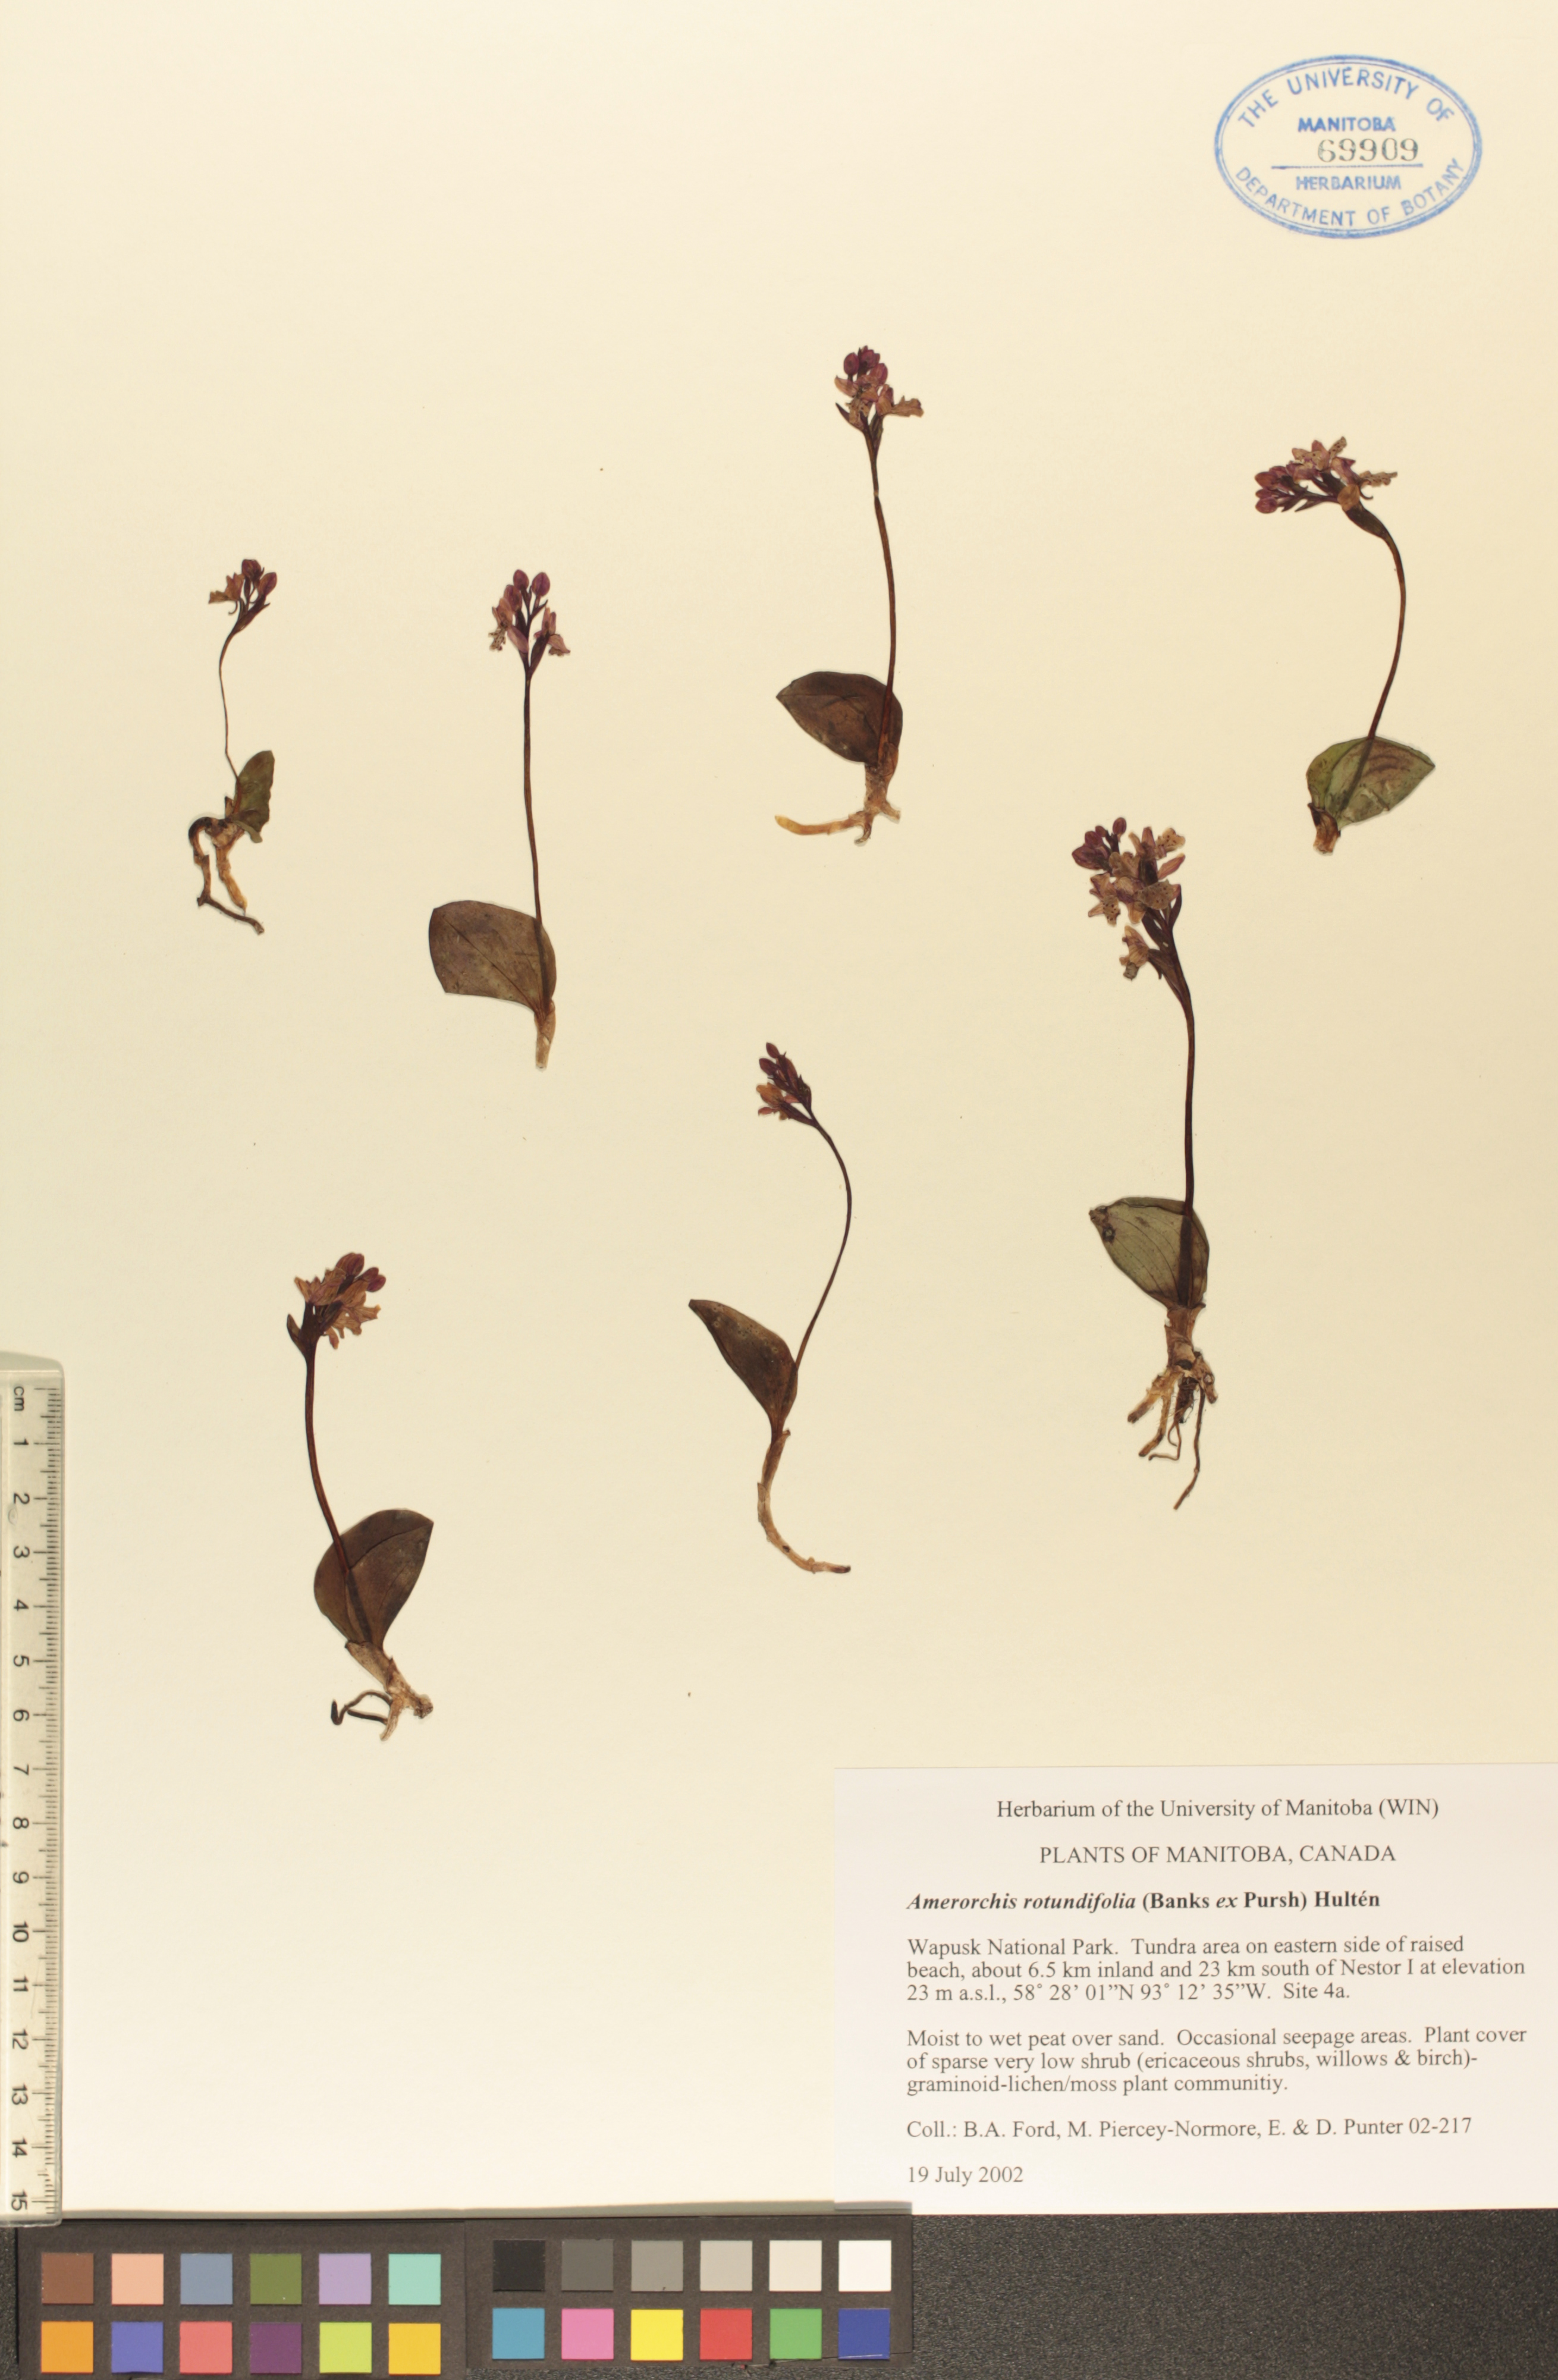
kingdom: Plantae
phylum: Tracheophyta
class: Liliopsida
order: Asparagales
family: Orchidaceae
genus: Galearis
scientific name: Galearis rotundifolia
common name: One-leaved orchis
